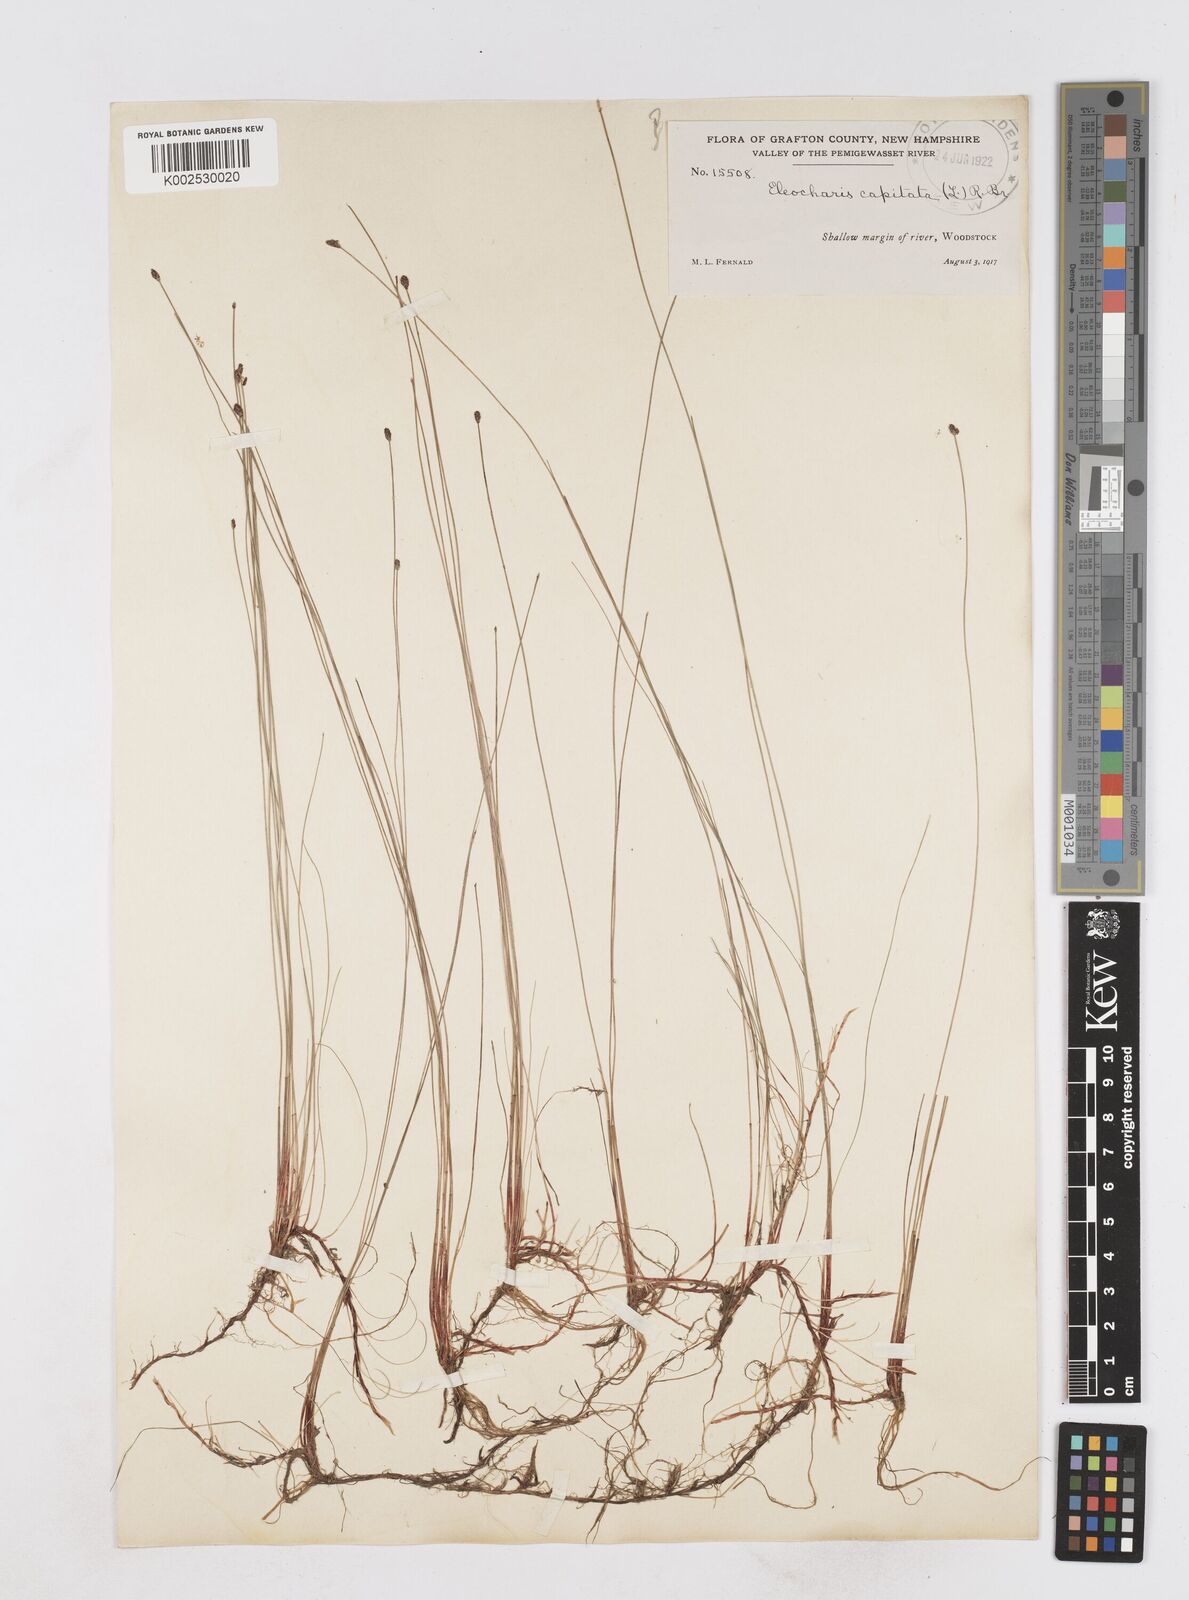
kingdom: Plantae
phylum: Tracheophyta
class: Liliopsida
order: Poales
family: Cyperaceae
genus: Eleocharis
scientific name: Eleocharis geniculata
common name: Canada spikesedge
